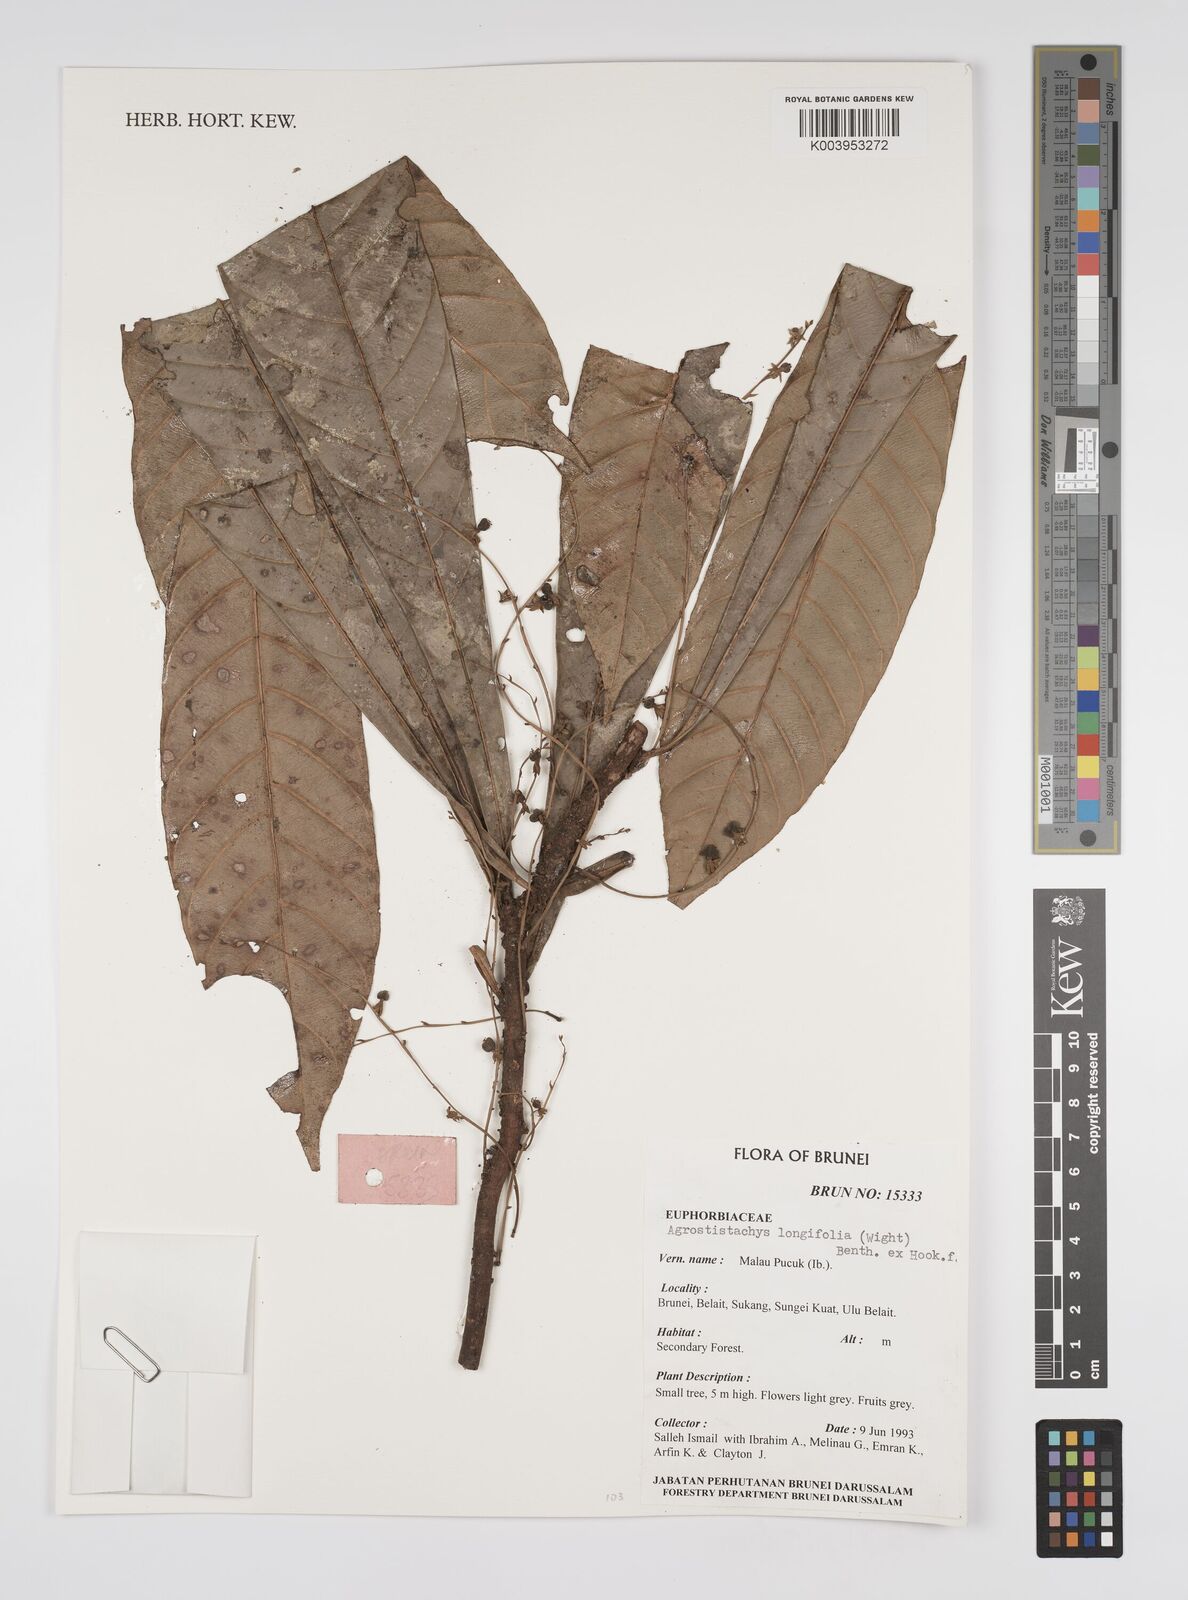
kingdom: Plantae
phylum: Tracheophyta
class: Magnoliopsida
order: Malpighiales
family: Euphorbiaceae
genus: Agrostistachys
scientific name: Agrostistachys borneensis
